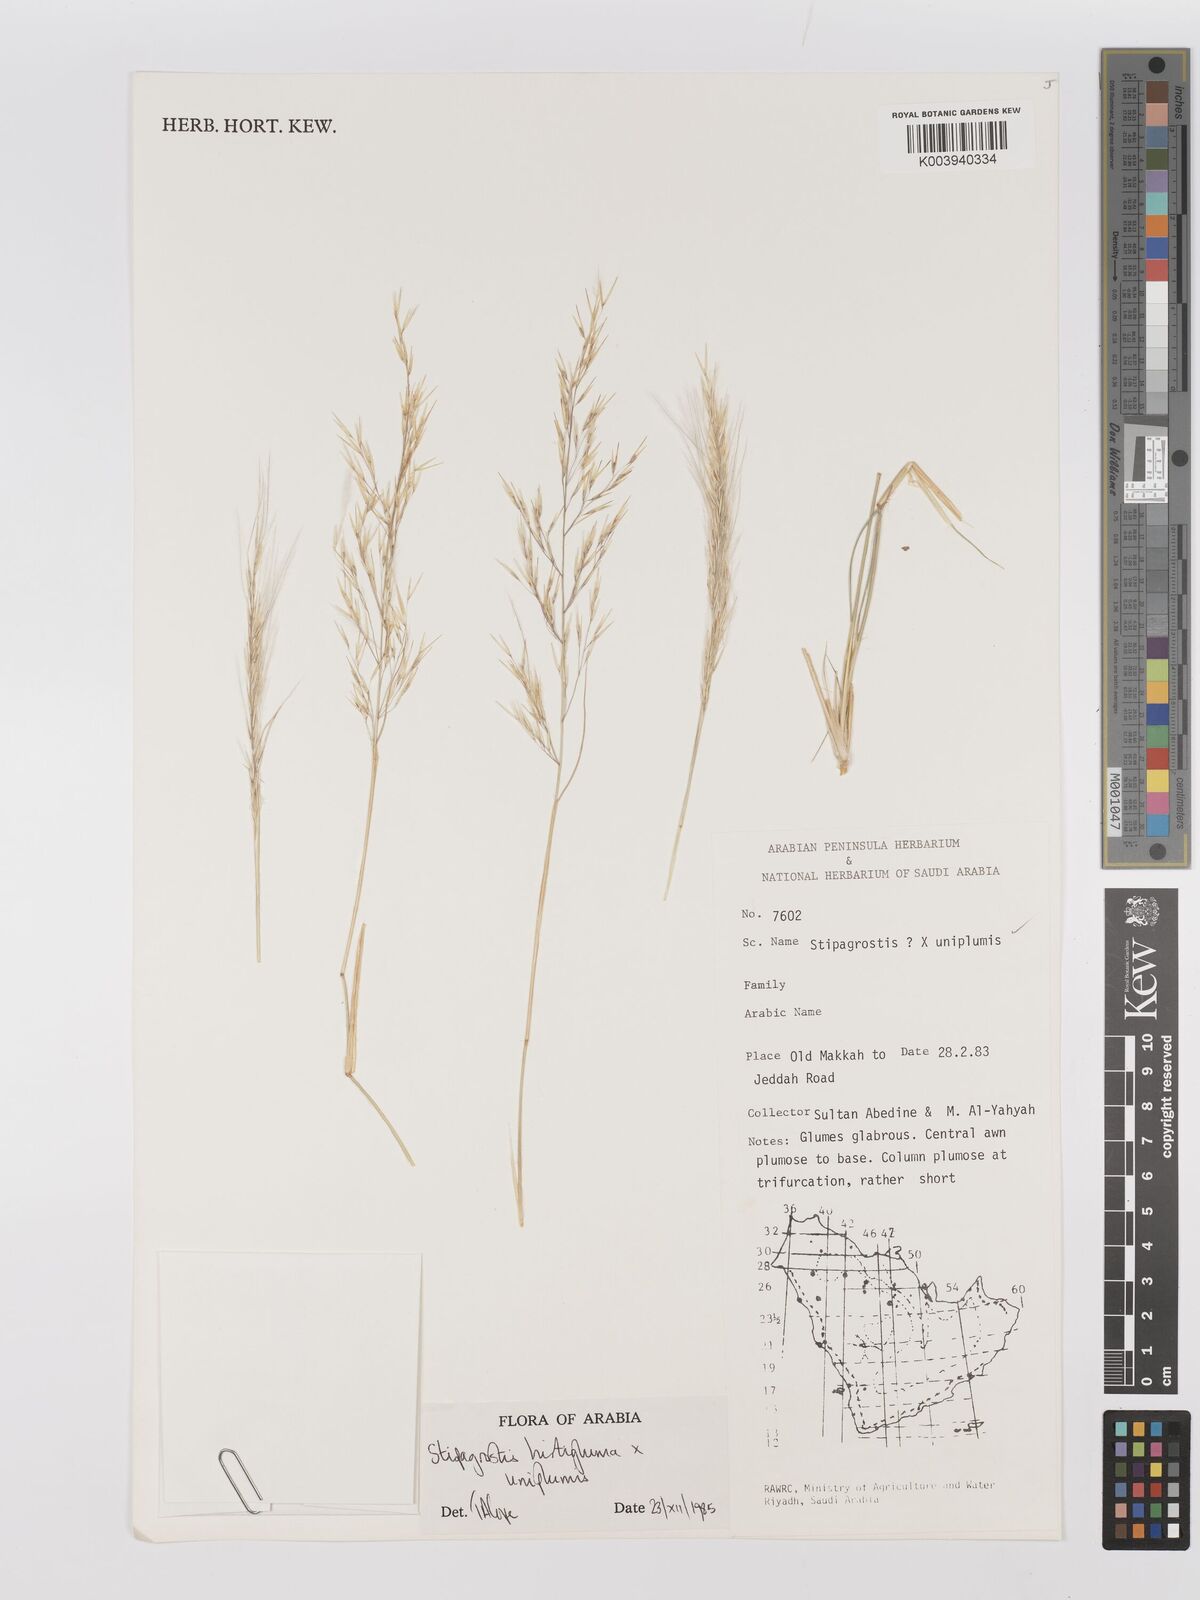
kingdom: Plantae
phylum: Tracheophyta
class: Liliopsida
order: Poales
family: Poaceae
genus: Stipagrostis
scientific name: Stipagrostis hirtigluma
